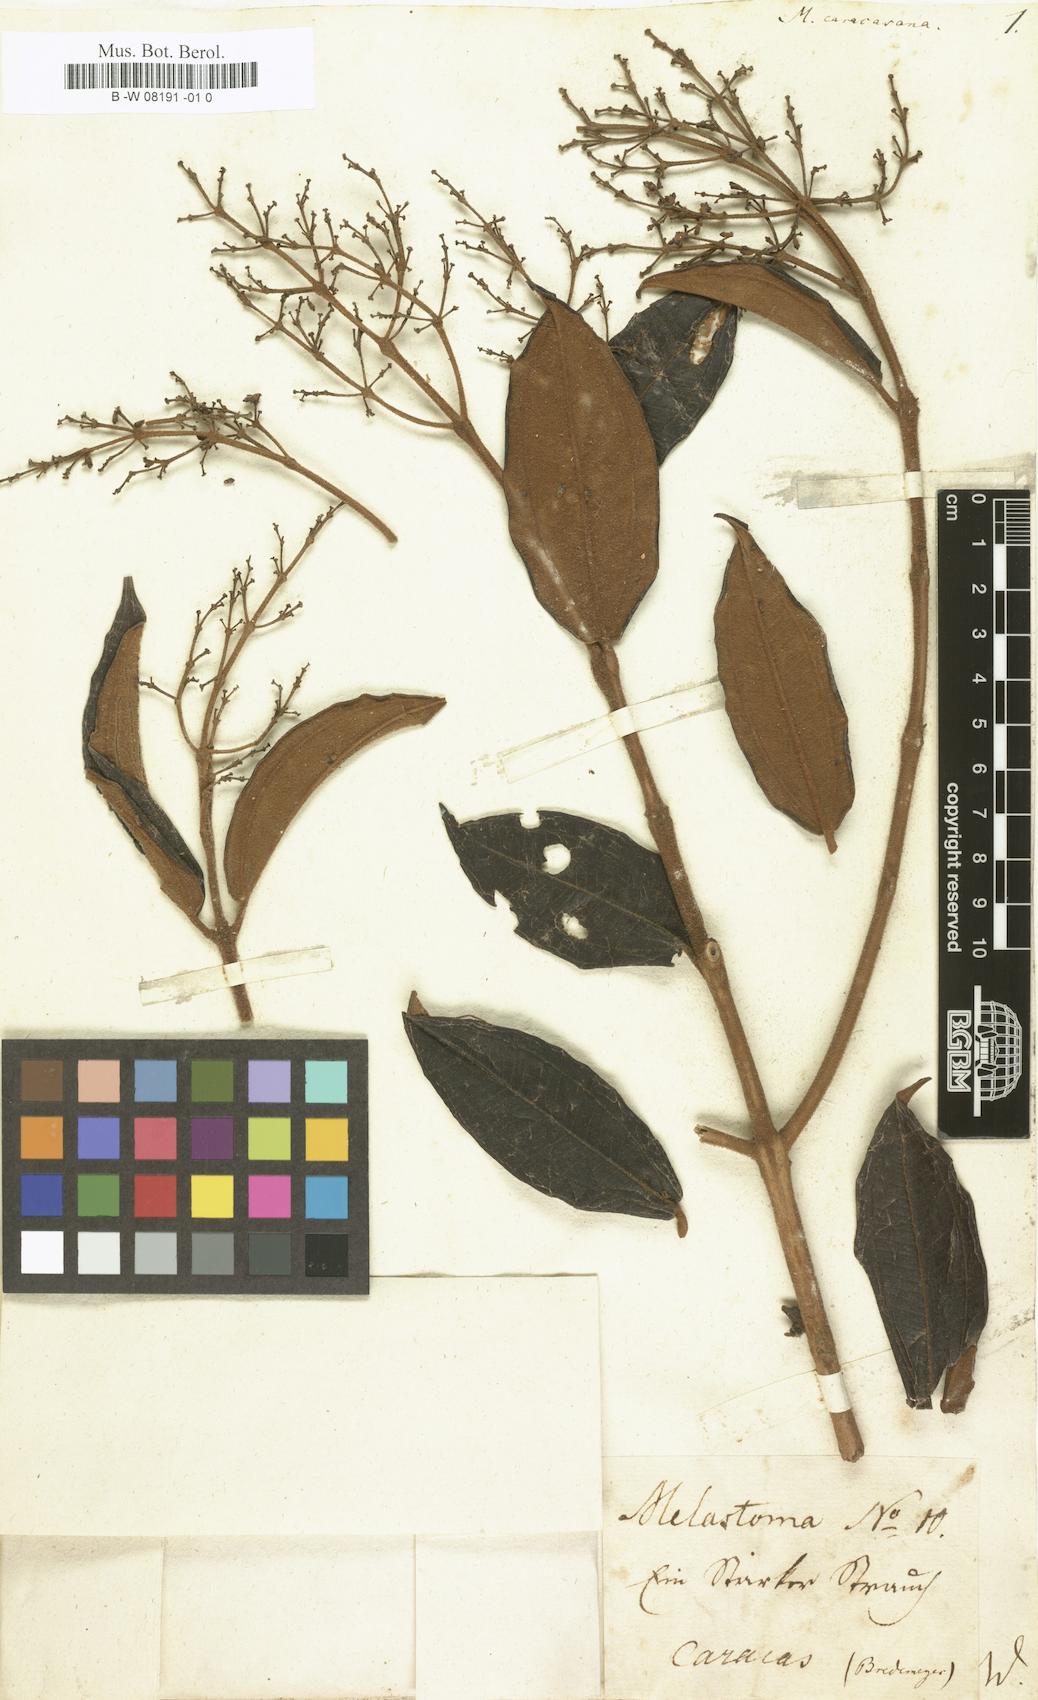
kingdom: Plantae
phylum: Tracheophyta
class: Magnoliopsida
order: Myrtales
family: Melastomataceae
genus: Miconia
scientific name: Miconia sublanata
